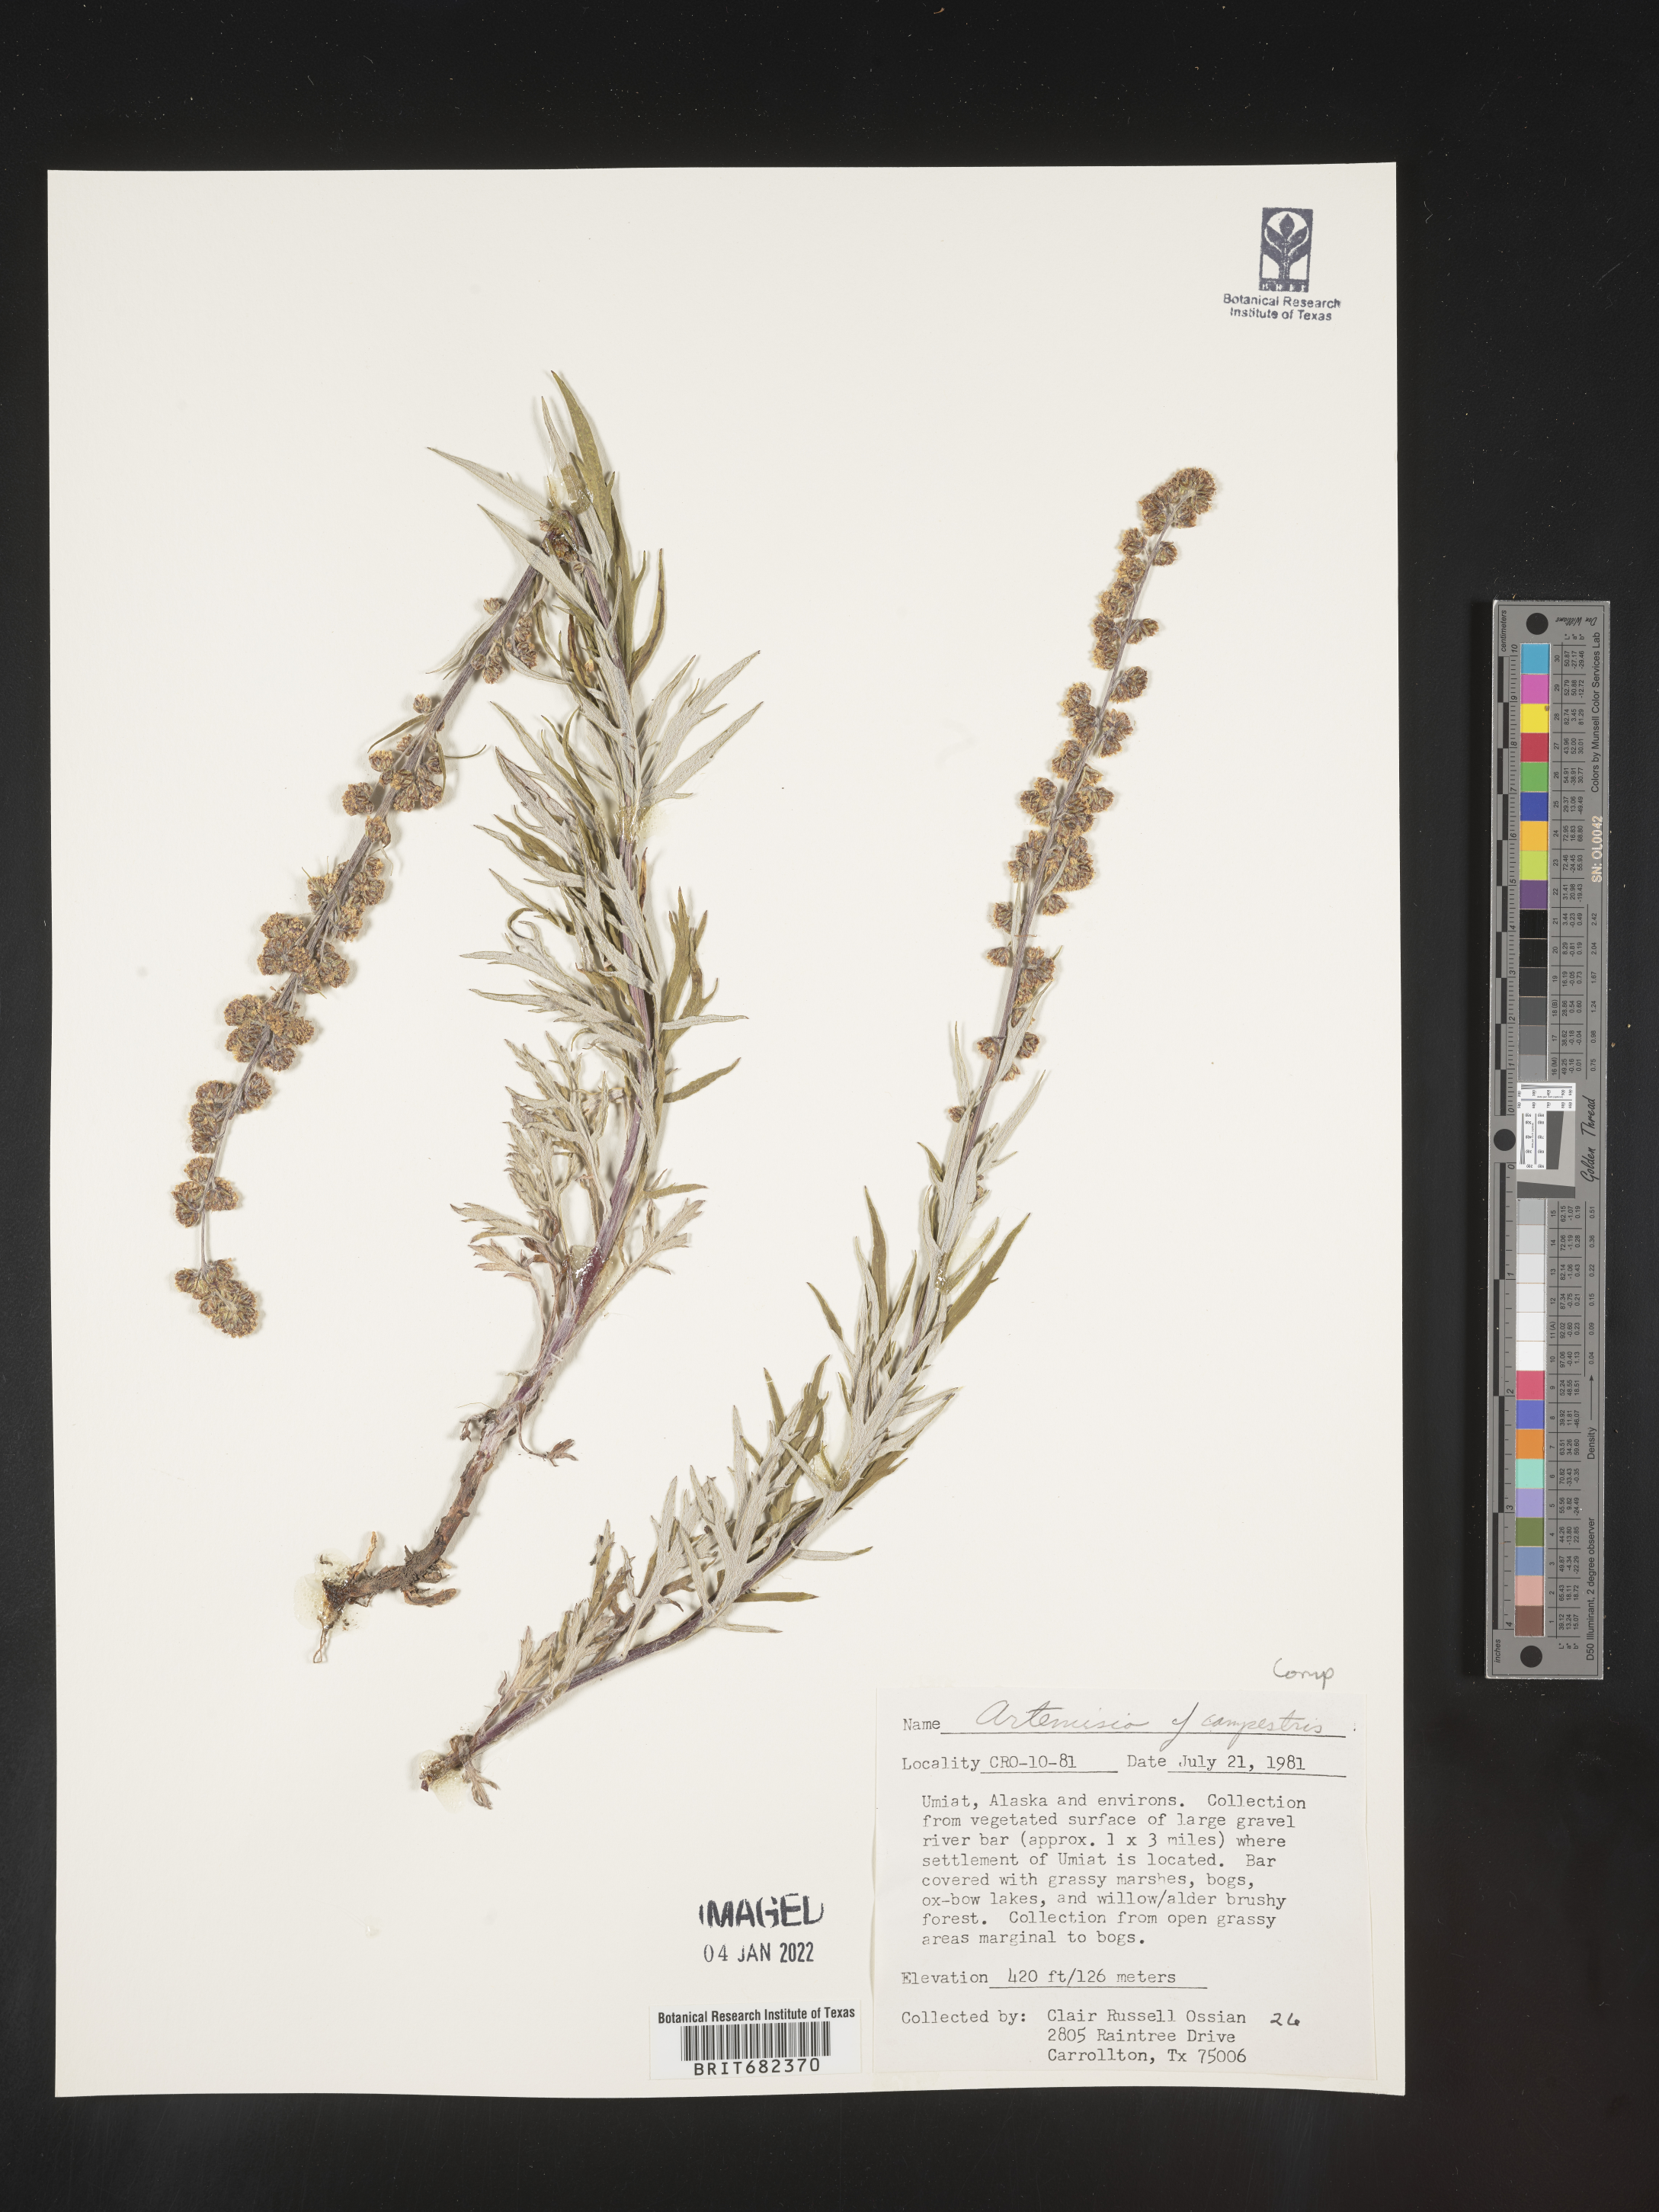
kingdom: Plantae
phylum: Tracheophyta
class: Magnoliopsida
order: Asterales
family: Asteraceae
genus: Artemisia
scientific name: Artemisia
